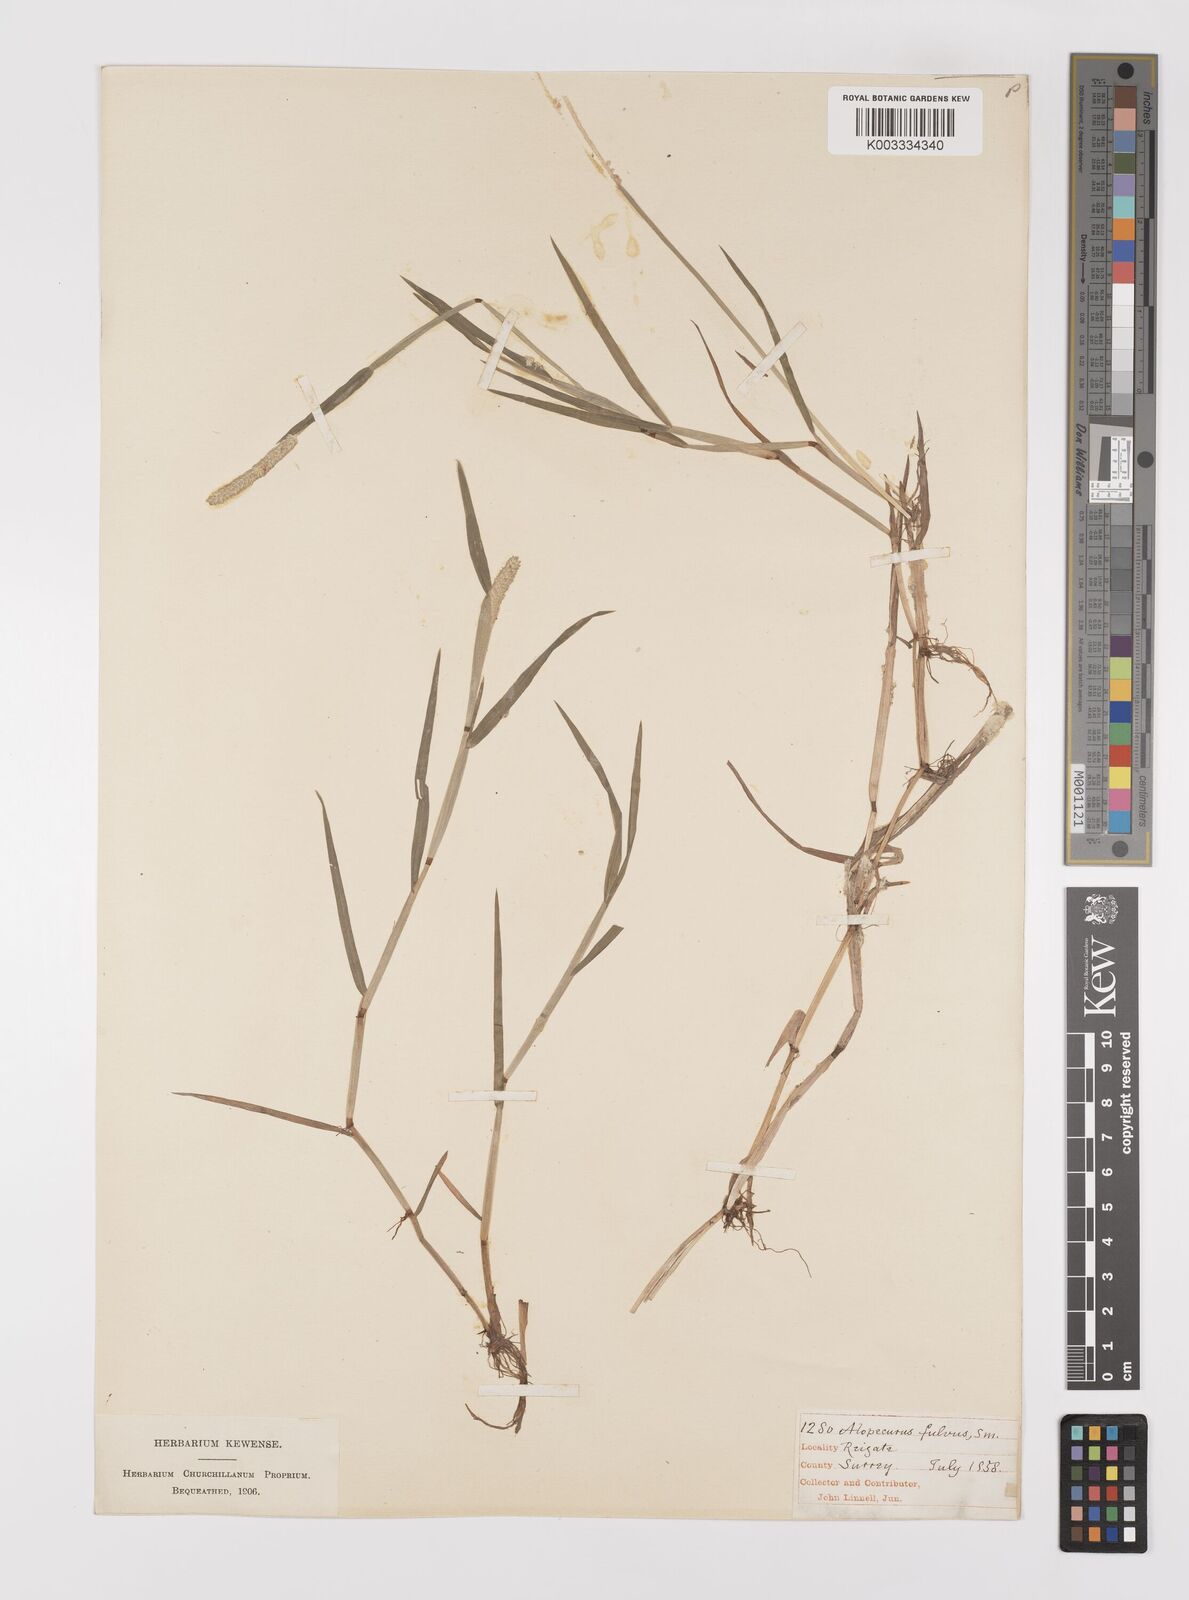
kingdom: Plantae
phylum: Tracheophyta
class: Liliopsida
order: Poales
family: Poaceae
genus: Alopecurus
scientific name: Alopecurus aequalis
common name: Orange foxtail
